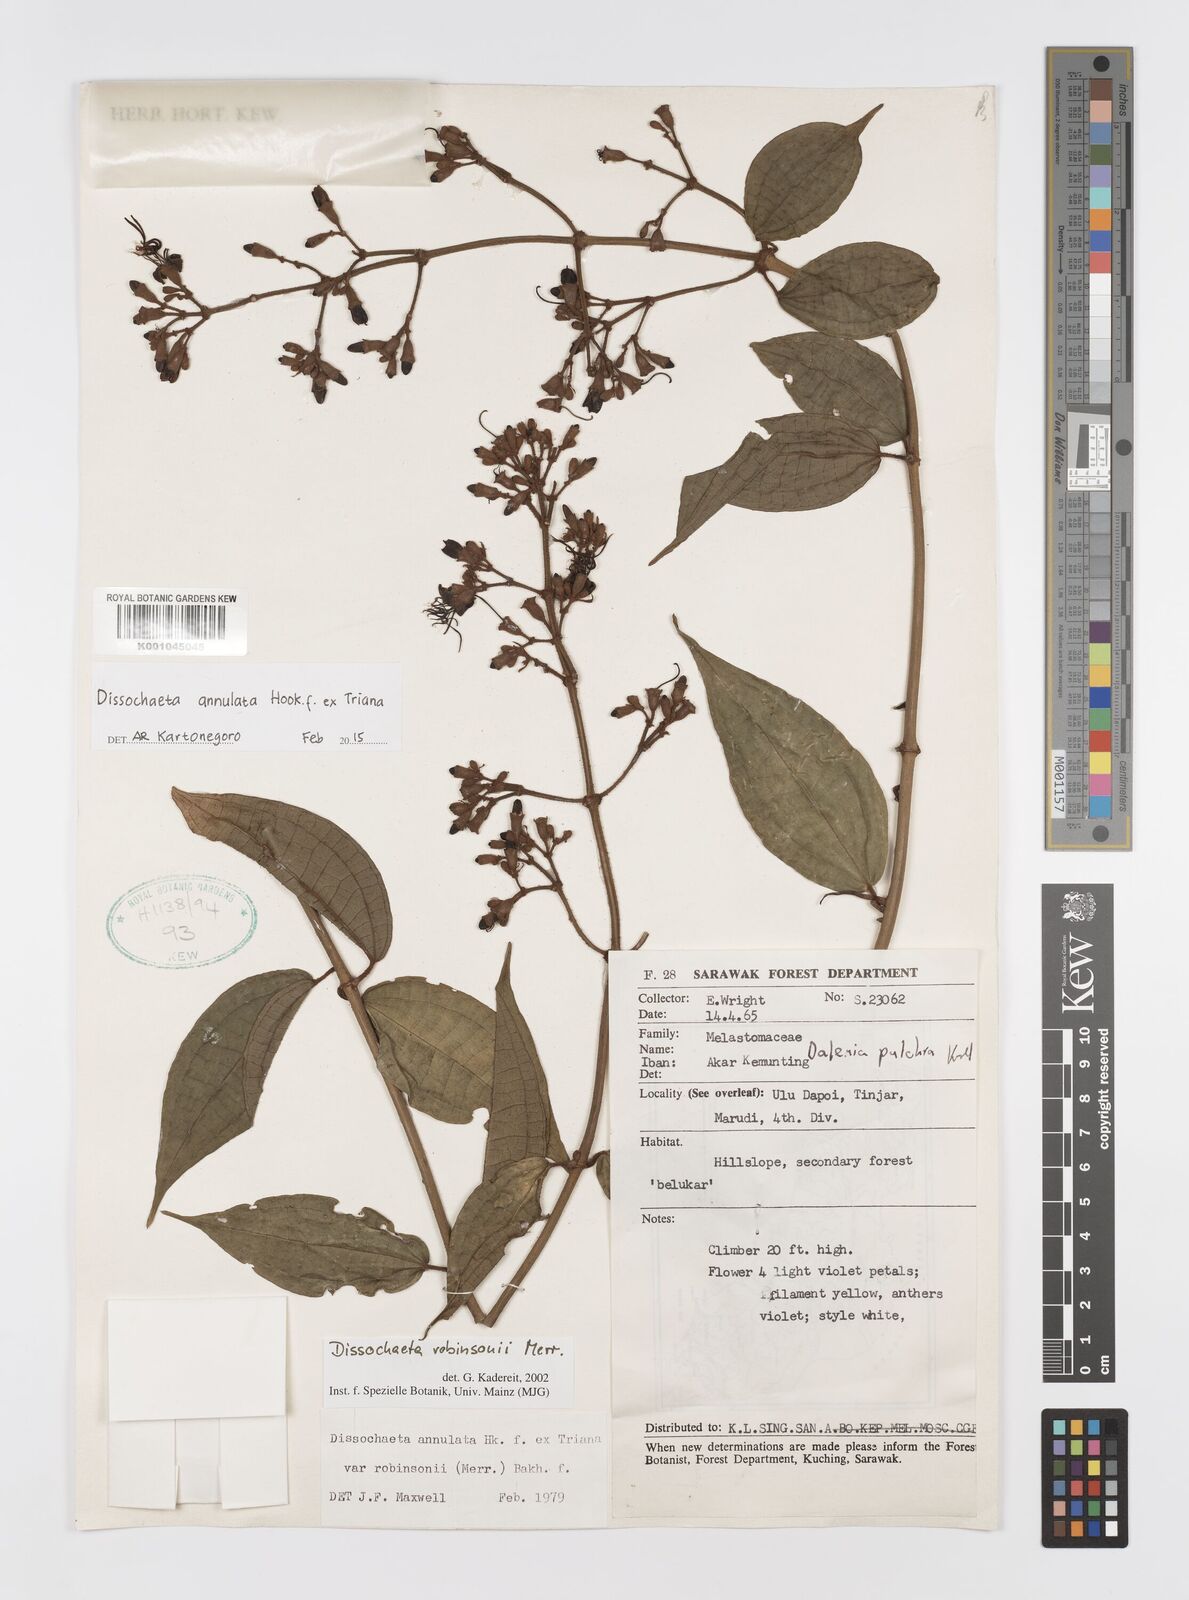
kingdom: Plantae
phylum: Tracheophyta
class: Magnoliopsida
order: Myrtales
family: Melastomataceae
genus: Dissochaeta
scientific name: Dissochaeta annulata
